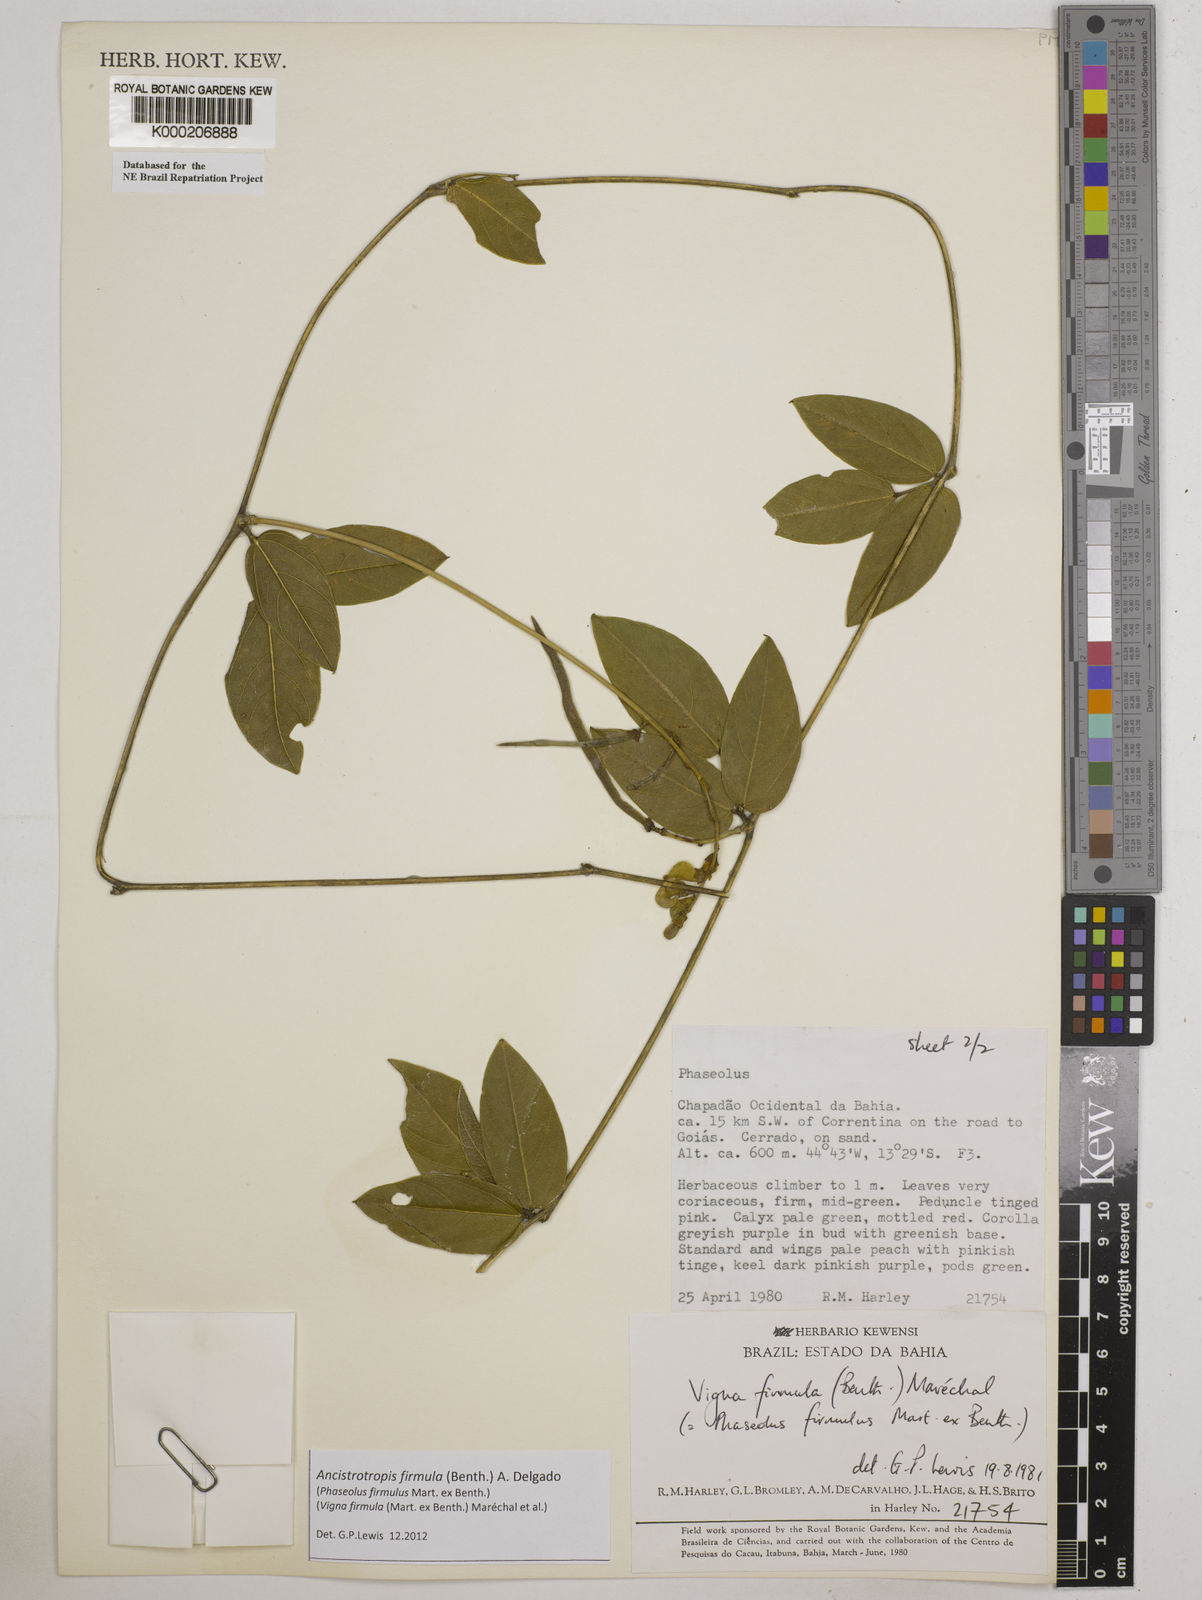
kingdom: Plantae
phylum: Tracheophyta
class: Magnoliopsida
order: Fabales
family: Fabaceae
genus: Vigna
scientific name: Vigna
